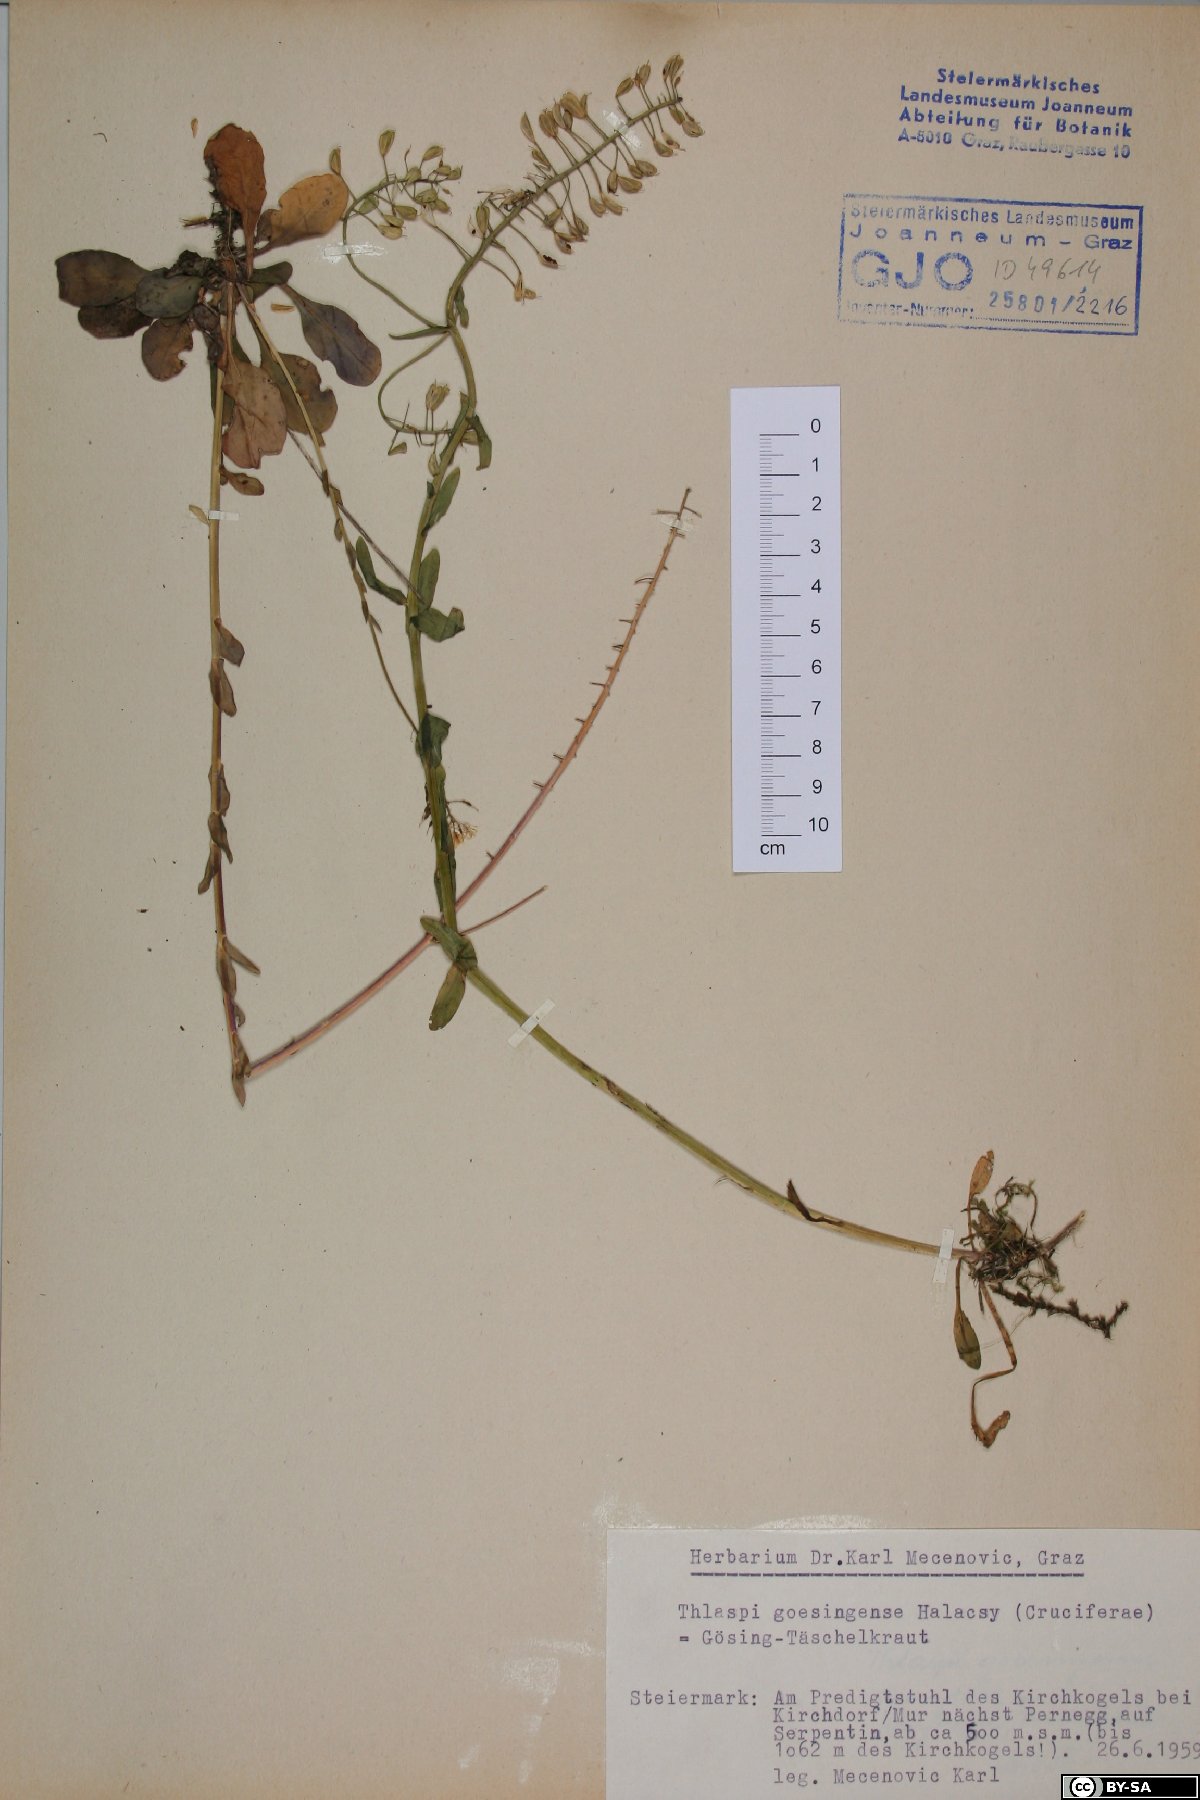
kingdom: Plantae
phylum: Tracheophyta
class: Magnoliopsida
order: Brassicales
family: Brassicaceae
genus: Noccaea
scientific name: Noccaea goesingensis
